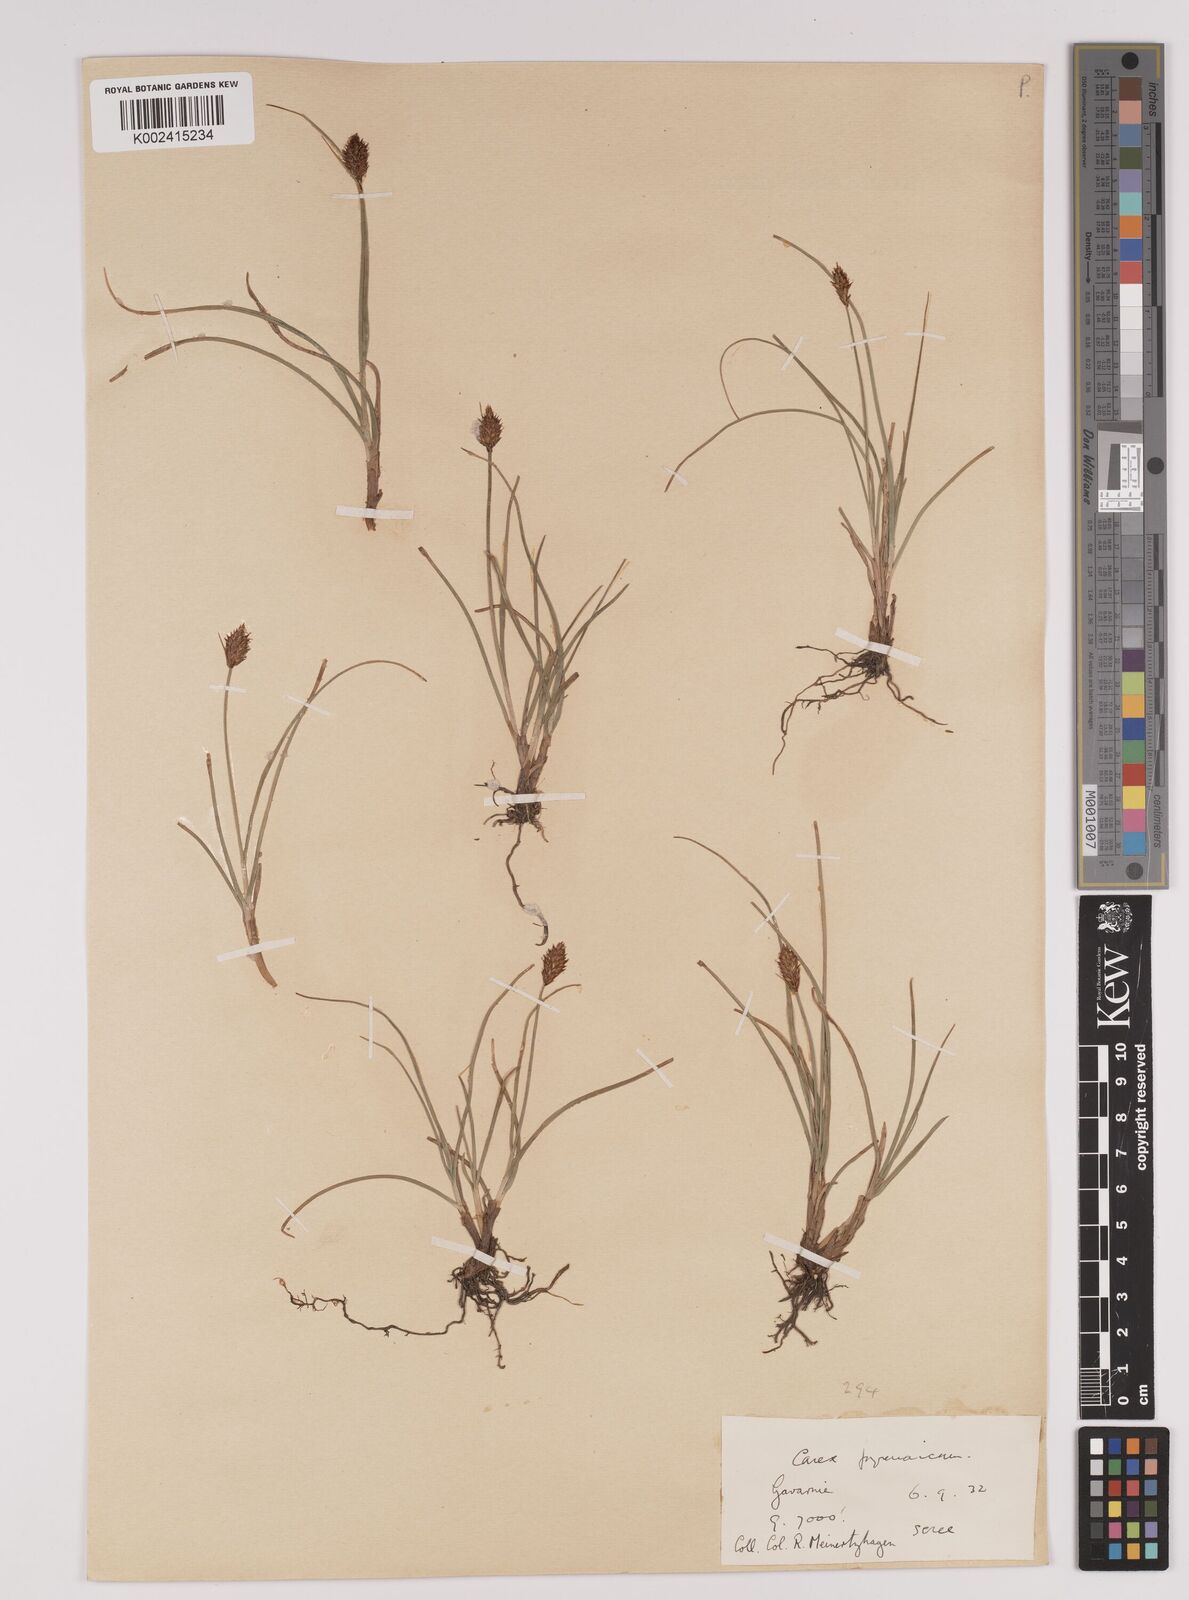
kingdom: Plantae
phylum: Tracheophyta
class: Liliopsida
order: Poales
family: Cyperaceae
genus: Carex
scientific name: Carex pyrenaica
